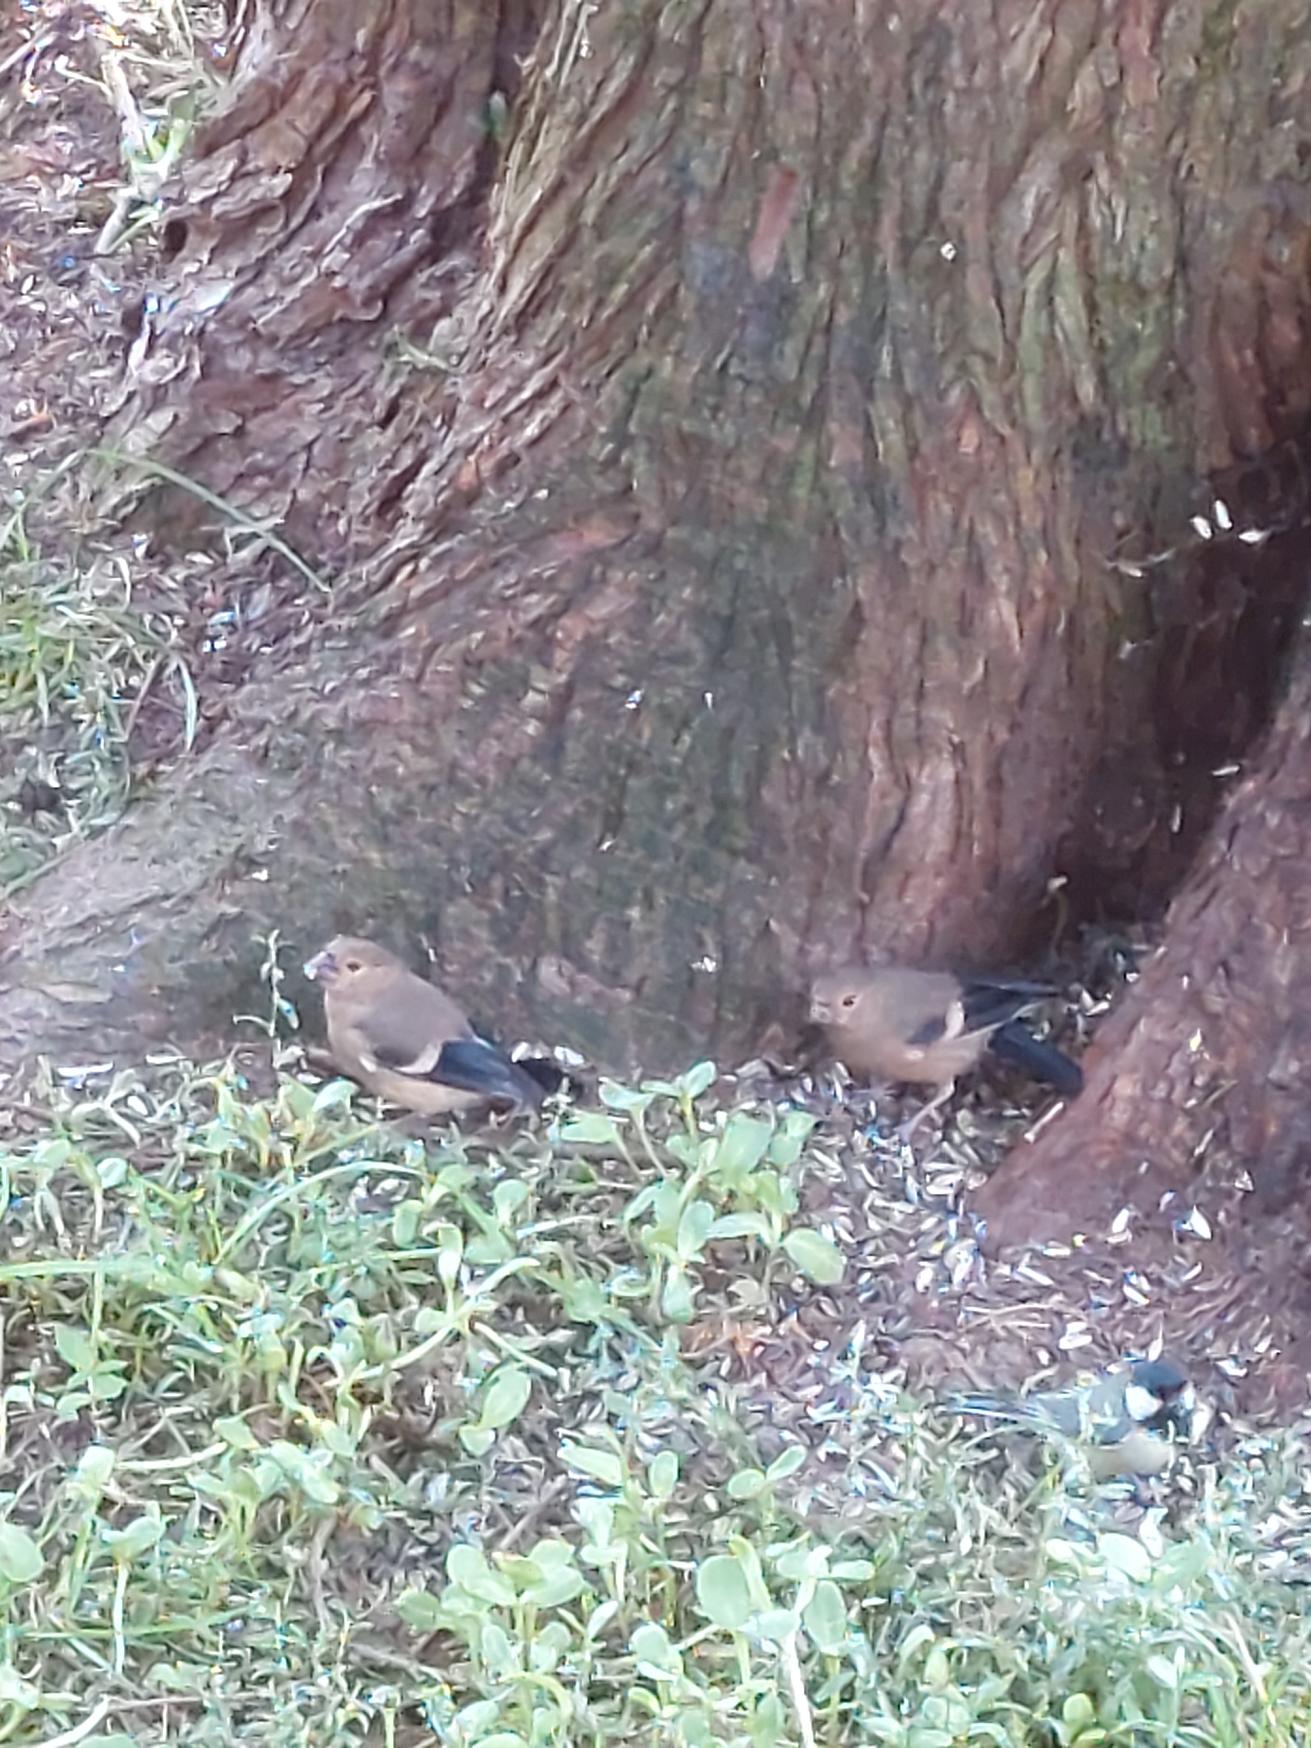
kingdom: Animalia
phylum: Chordata
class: Aves
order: Passeriformes
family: Fringillidae
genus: Pyrrhula
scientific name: Pyrrhula pyrrhula
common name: Dompap
